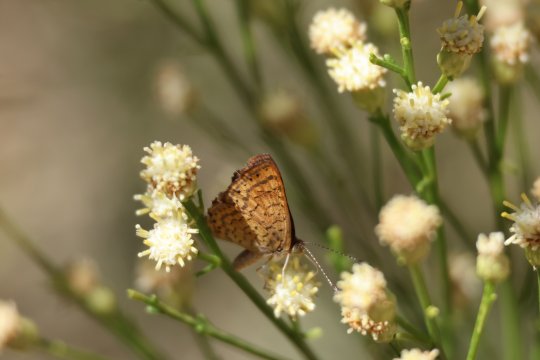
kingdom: Animalia
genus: Calephelis
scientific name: Calephelis nemesis
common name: Fatal Metalmark
